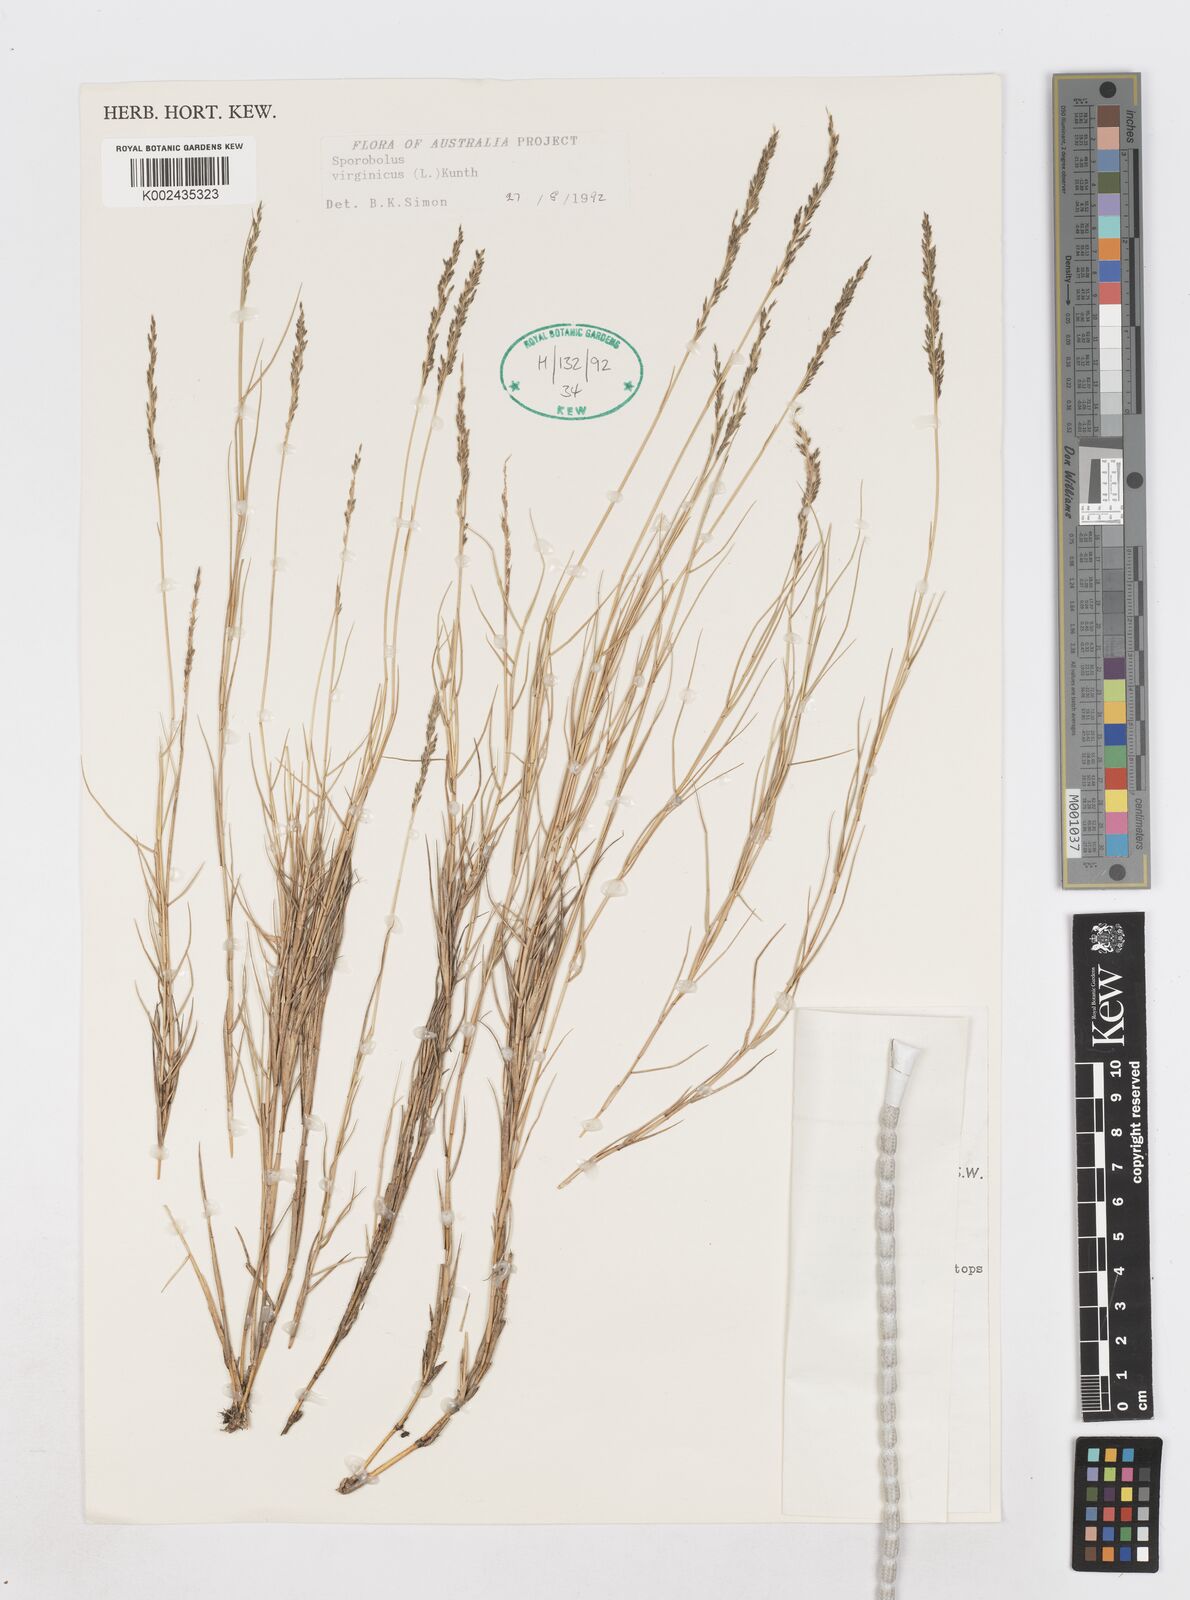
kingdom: Plantae
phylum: Tracheophyta
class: Liliopsida
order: Poales
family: Poaceae
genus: Sporobolus
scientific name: Sporobolus virginicus
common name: Beach dropseed
